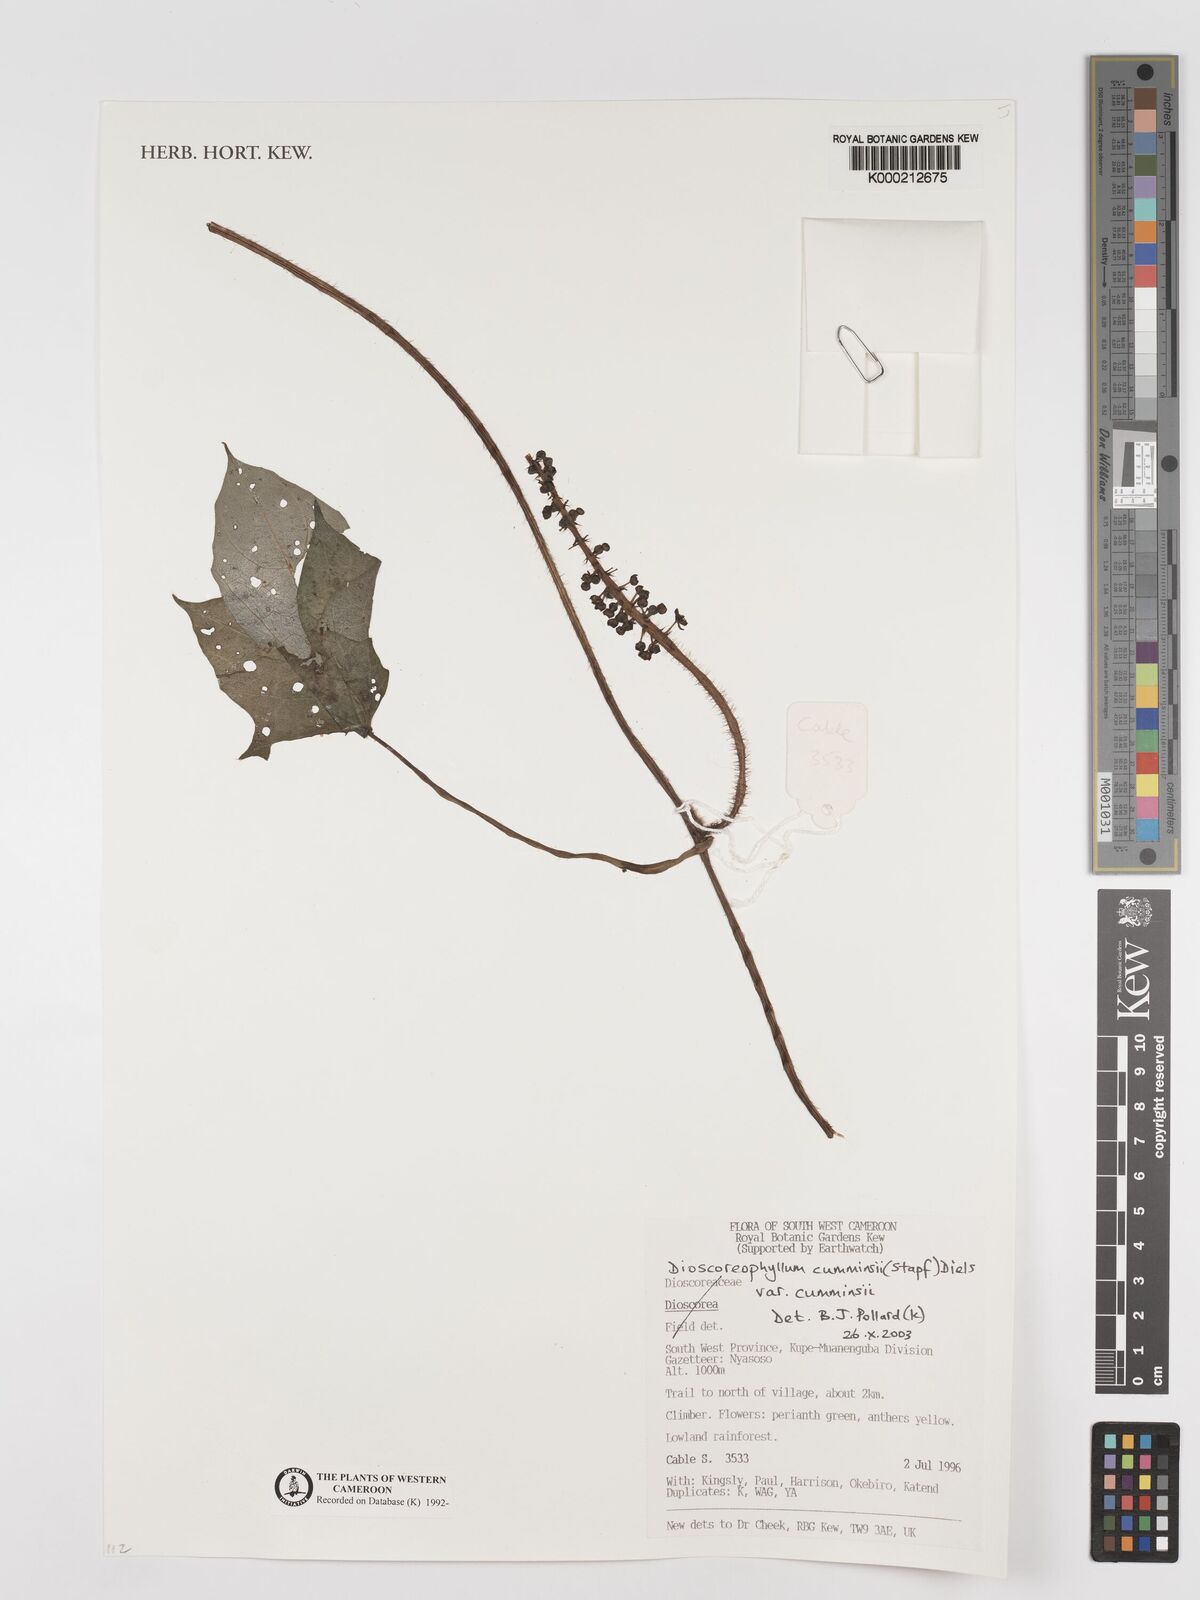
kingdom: Plantae
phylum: Tracheophyta
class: Magnoliopsida
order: Ranunculales
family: Menispermaceae
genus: Dioscoreophyllum
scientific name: Dioscoreophyllum volkensii
